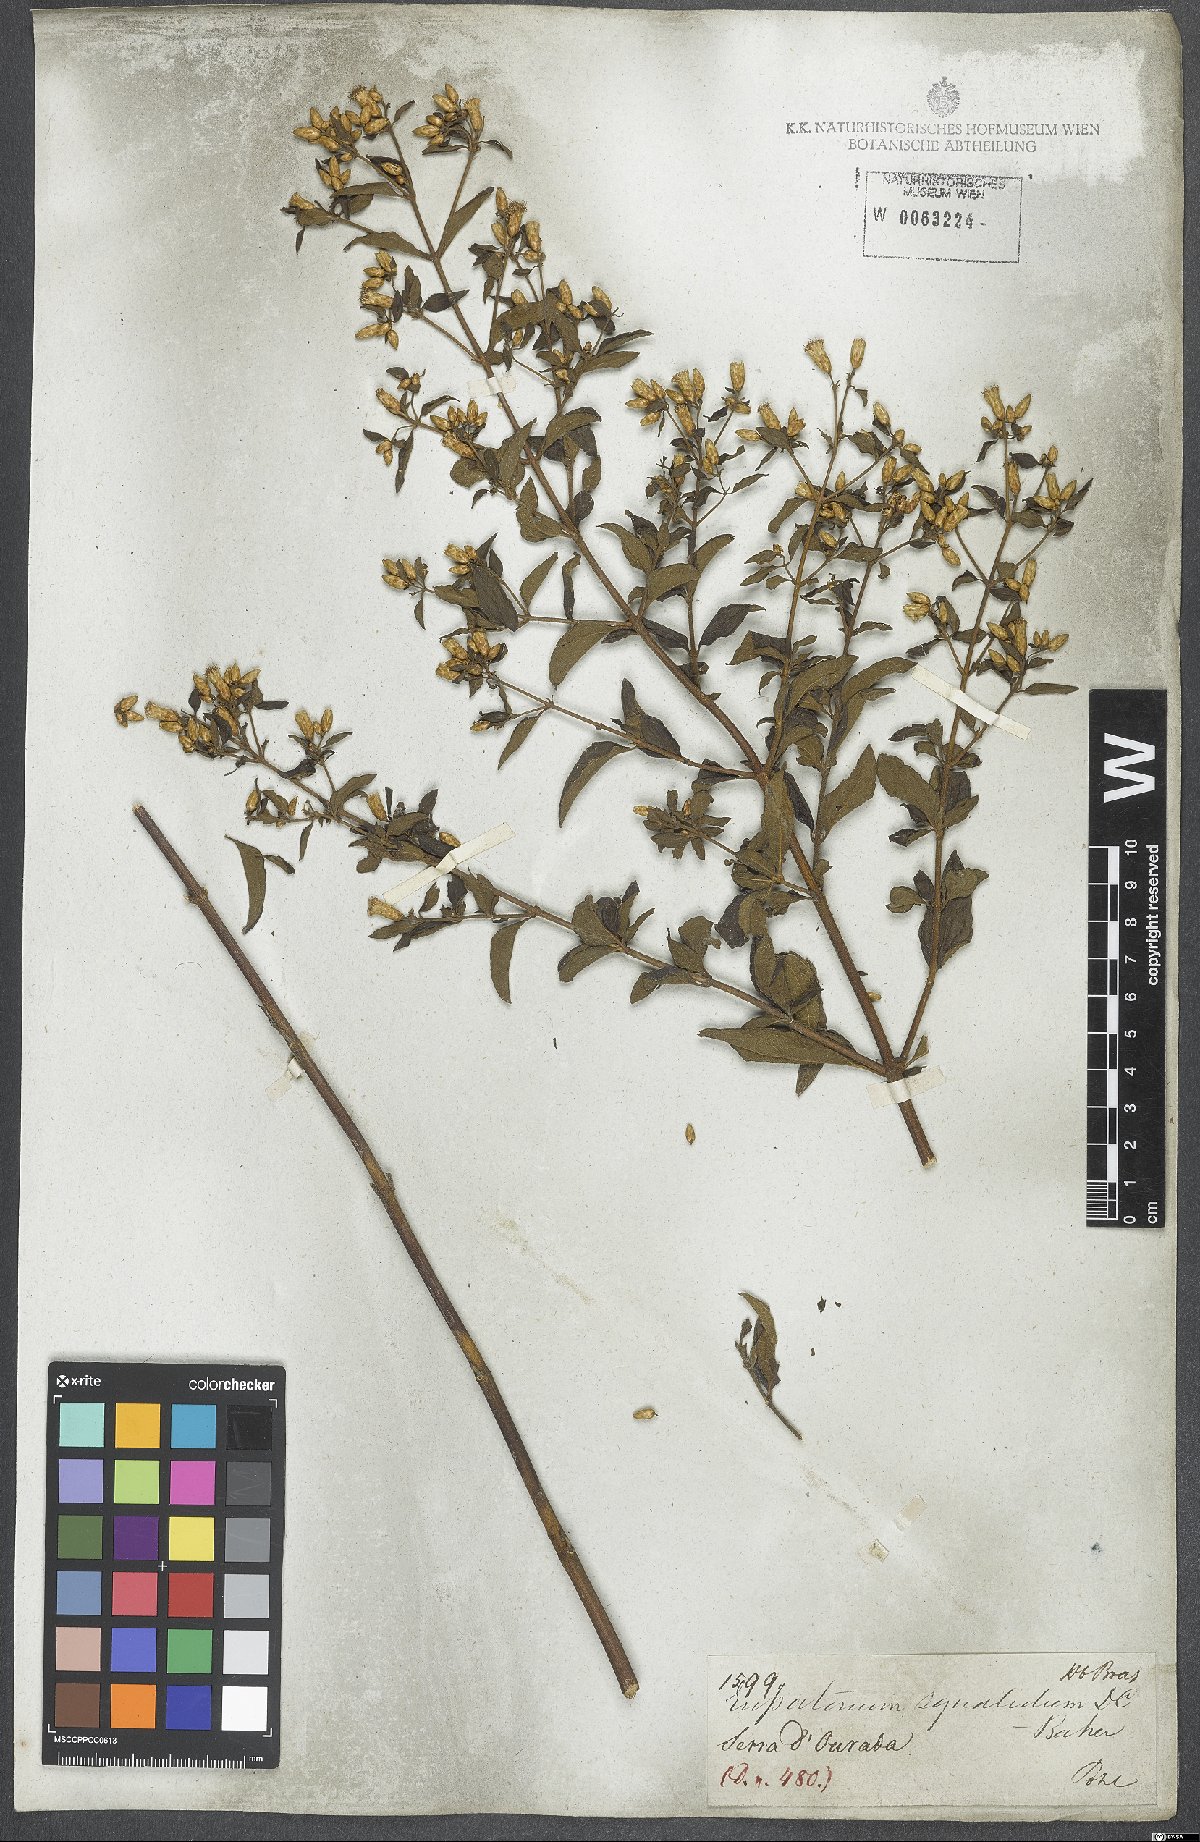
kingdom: Plantae
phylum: Tracheophyta
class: Magnoliopsida
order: Asterales
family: Asteraceae
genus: Chromolaena
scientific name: Chromolaena squalida
